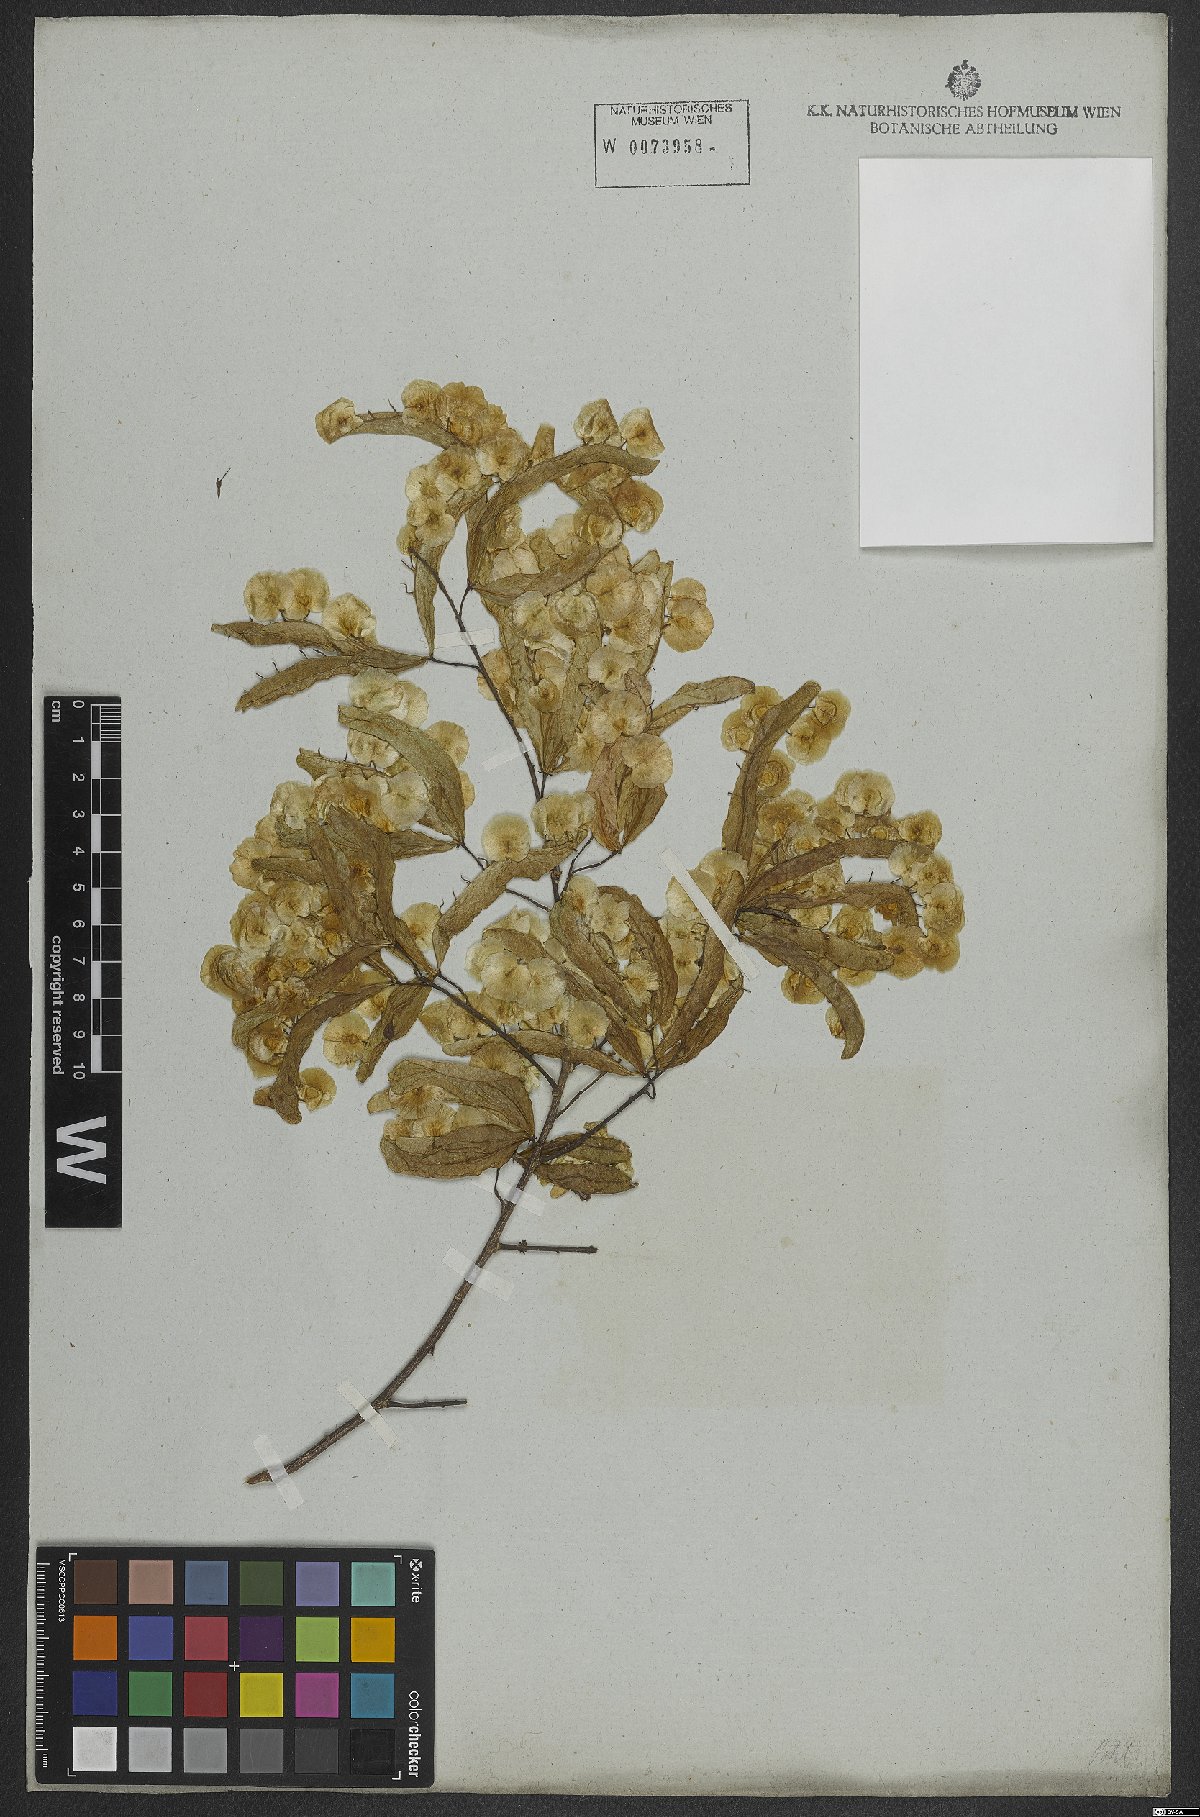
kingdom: Plantae
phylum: Tracheophyta
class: Magnoliopsida
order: Malpighiales
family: Violaceae
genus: Anchietea
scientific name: Anchietea pyrifolia
